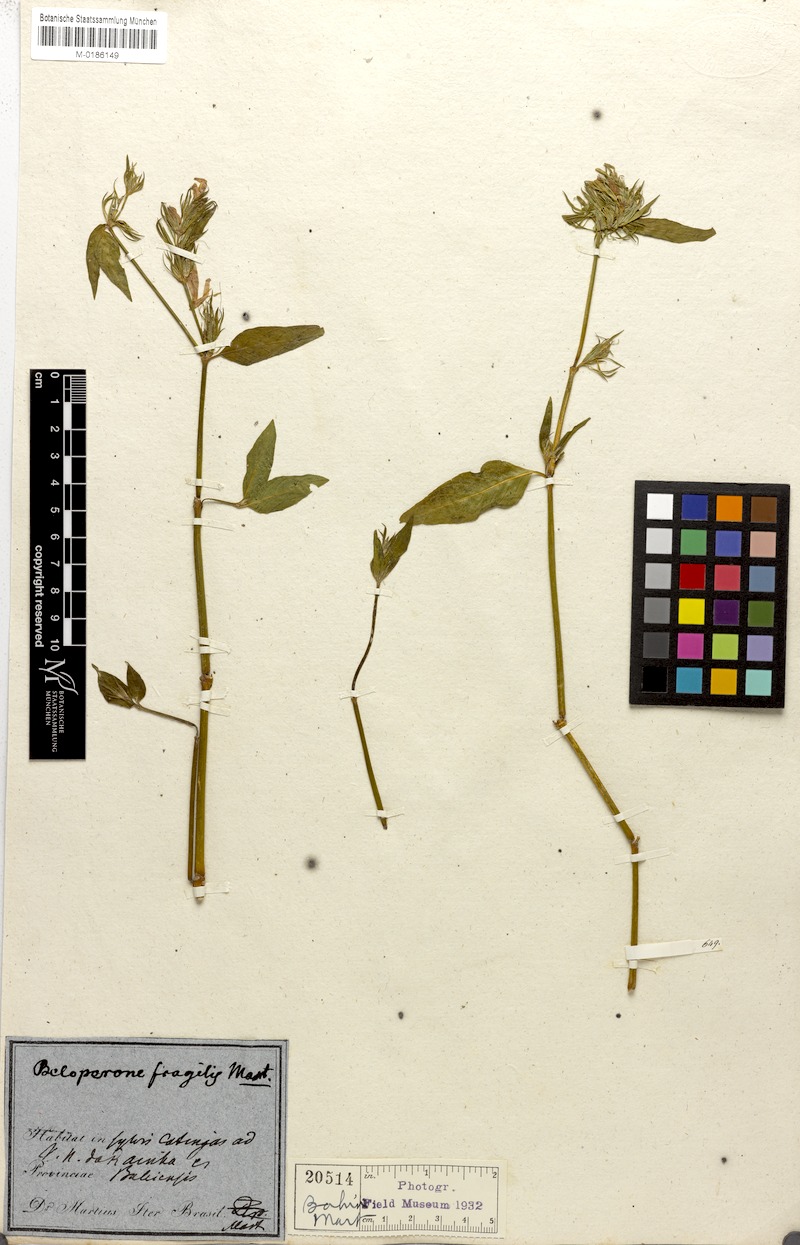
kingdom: Plantae
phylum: Tracheophyta
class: Magnoliopsida
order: Lamiales
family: Acanthaceae
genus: Justicia
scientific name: Justicia Beloperone fragilis
